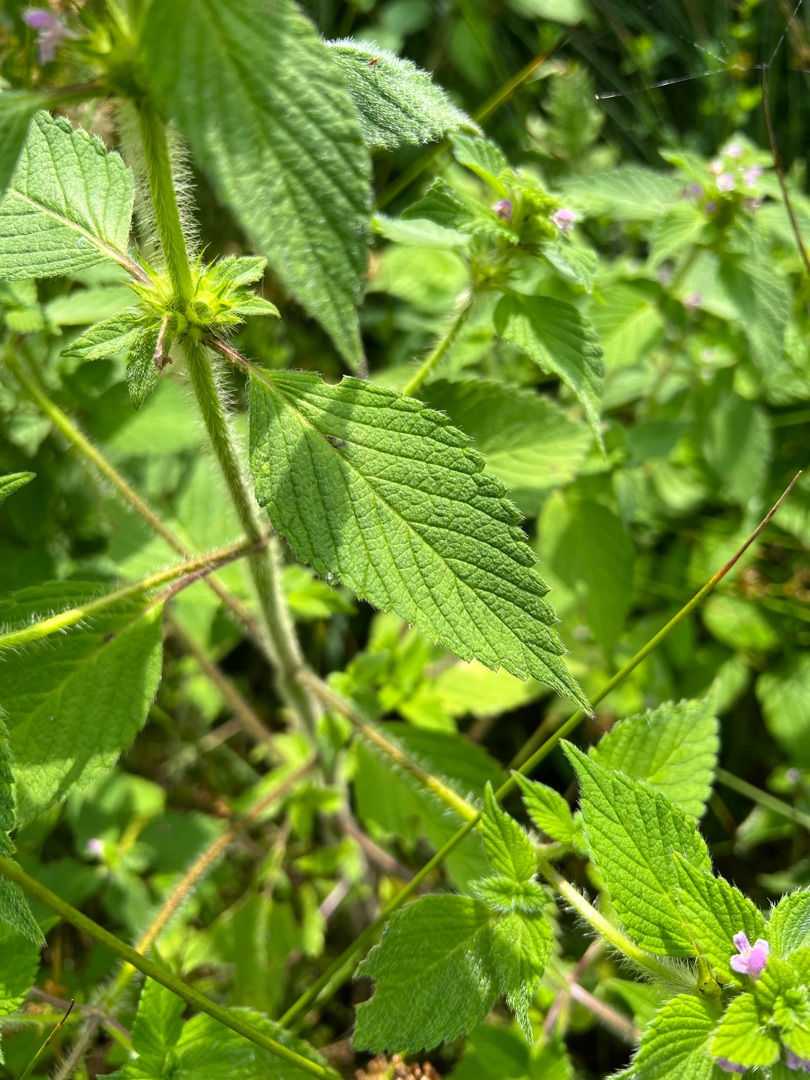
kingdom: Plantae
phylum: Tracheophyta
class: Magnoliopsida
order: Lamiales
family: Lamiaceae
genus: Galeopsis
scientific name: Galeopsis bifida
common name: Skov-hanekro
